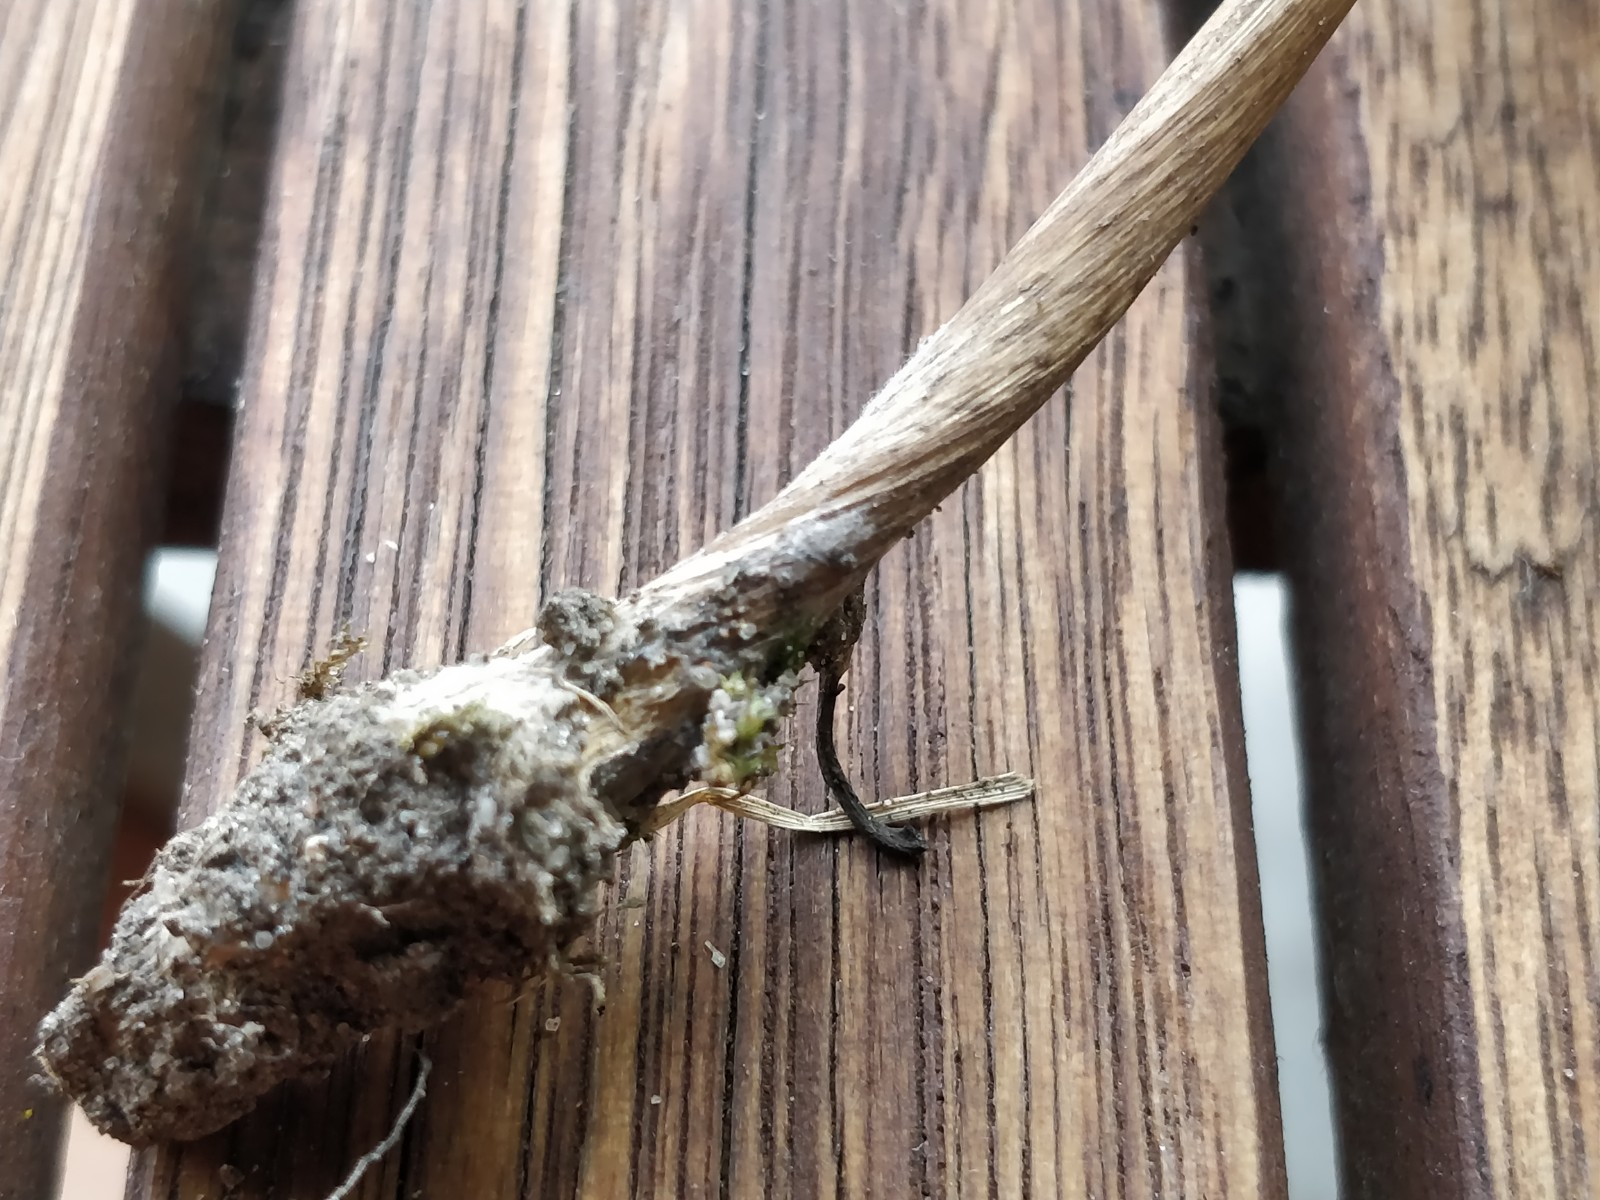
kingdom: Fungi
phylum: Basidiomycota
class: Agaricomycetes
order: Agaricales
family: Physalacriaceae
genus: Hymenopellis
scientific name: Hymenopellis radicata
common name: almindelig pælerodshat
